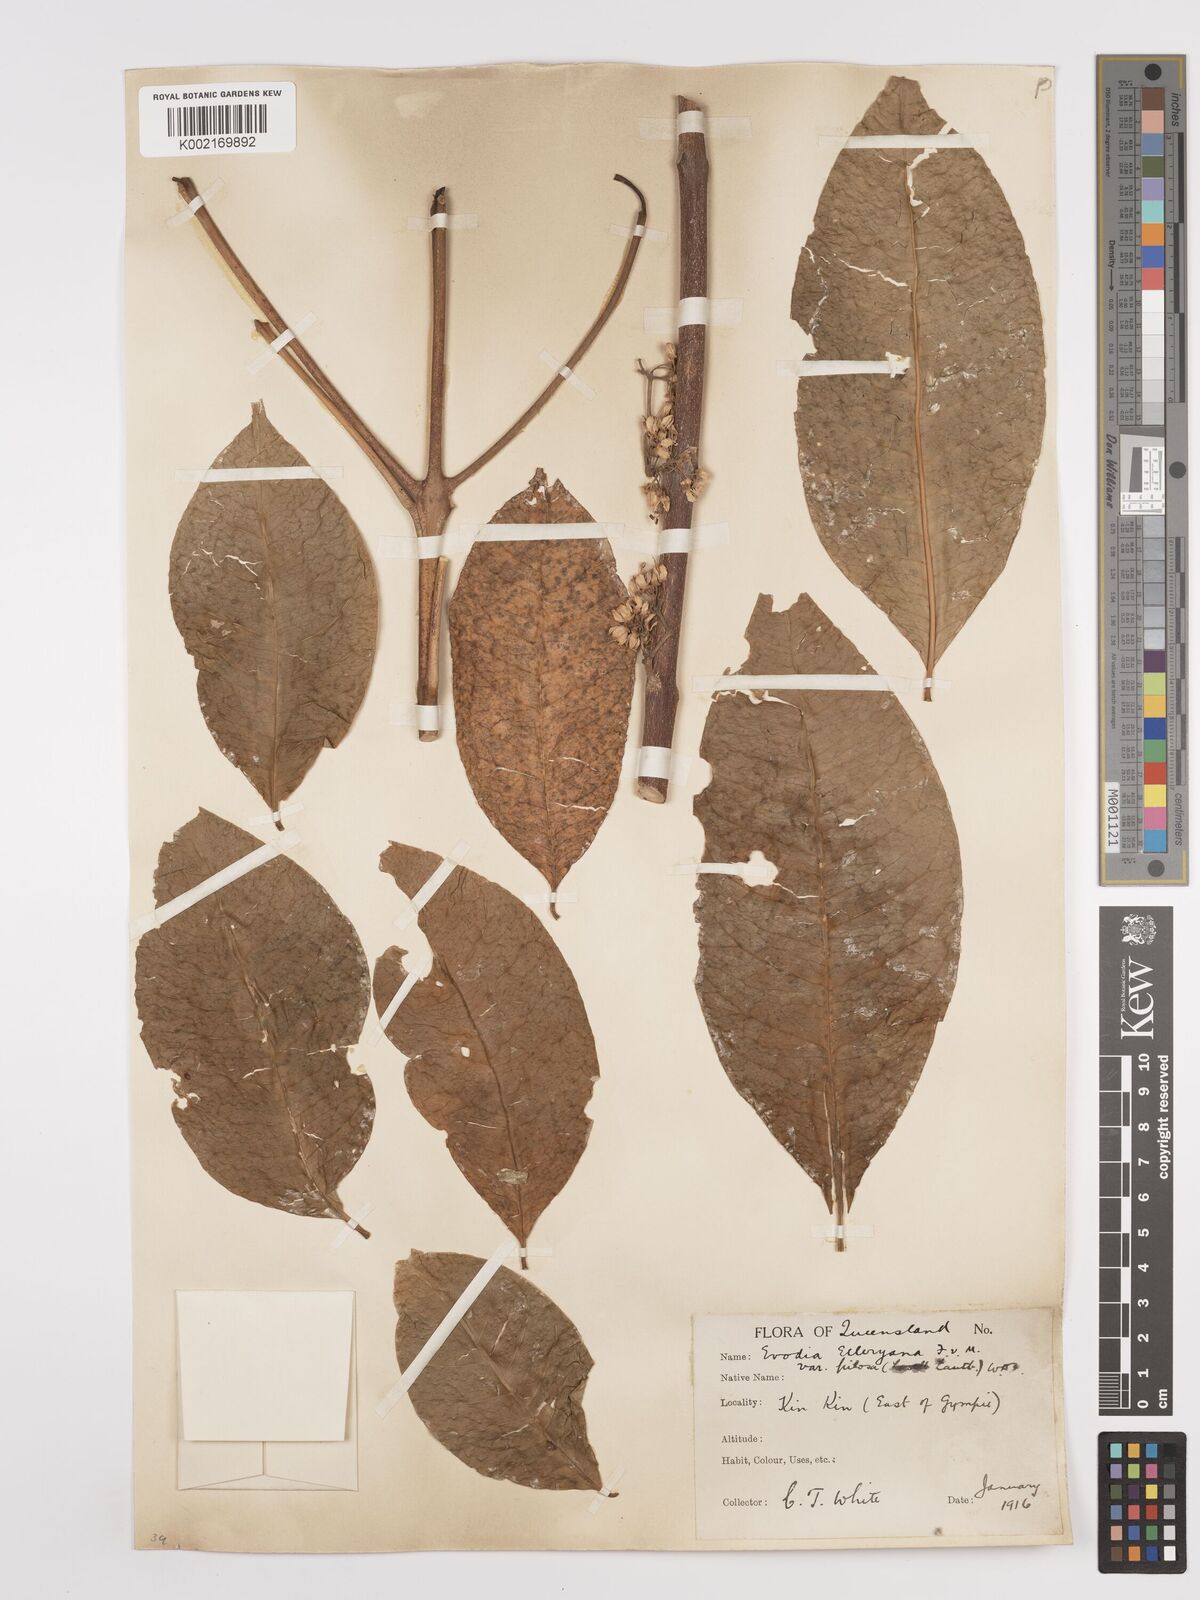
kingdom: Plantae
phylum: Tracheophyta
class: Magnoliopsida
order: Sapindales
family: Rutaceae
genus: Melicope
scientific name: Melicope accedens
